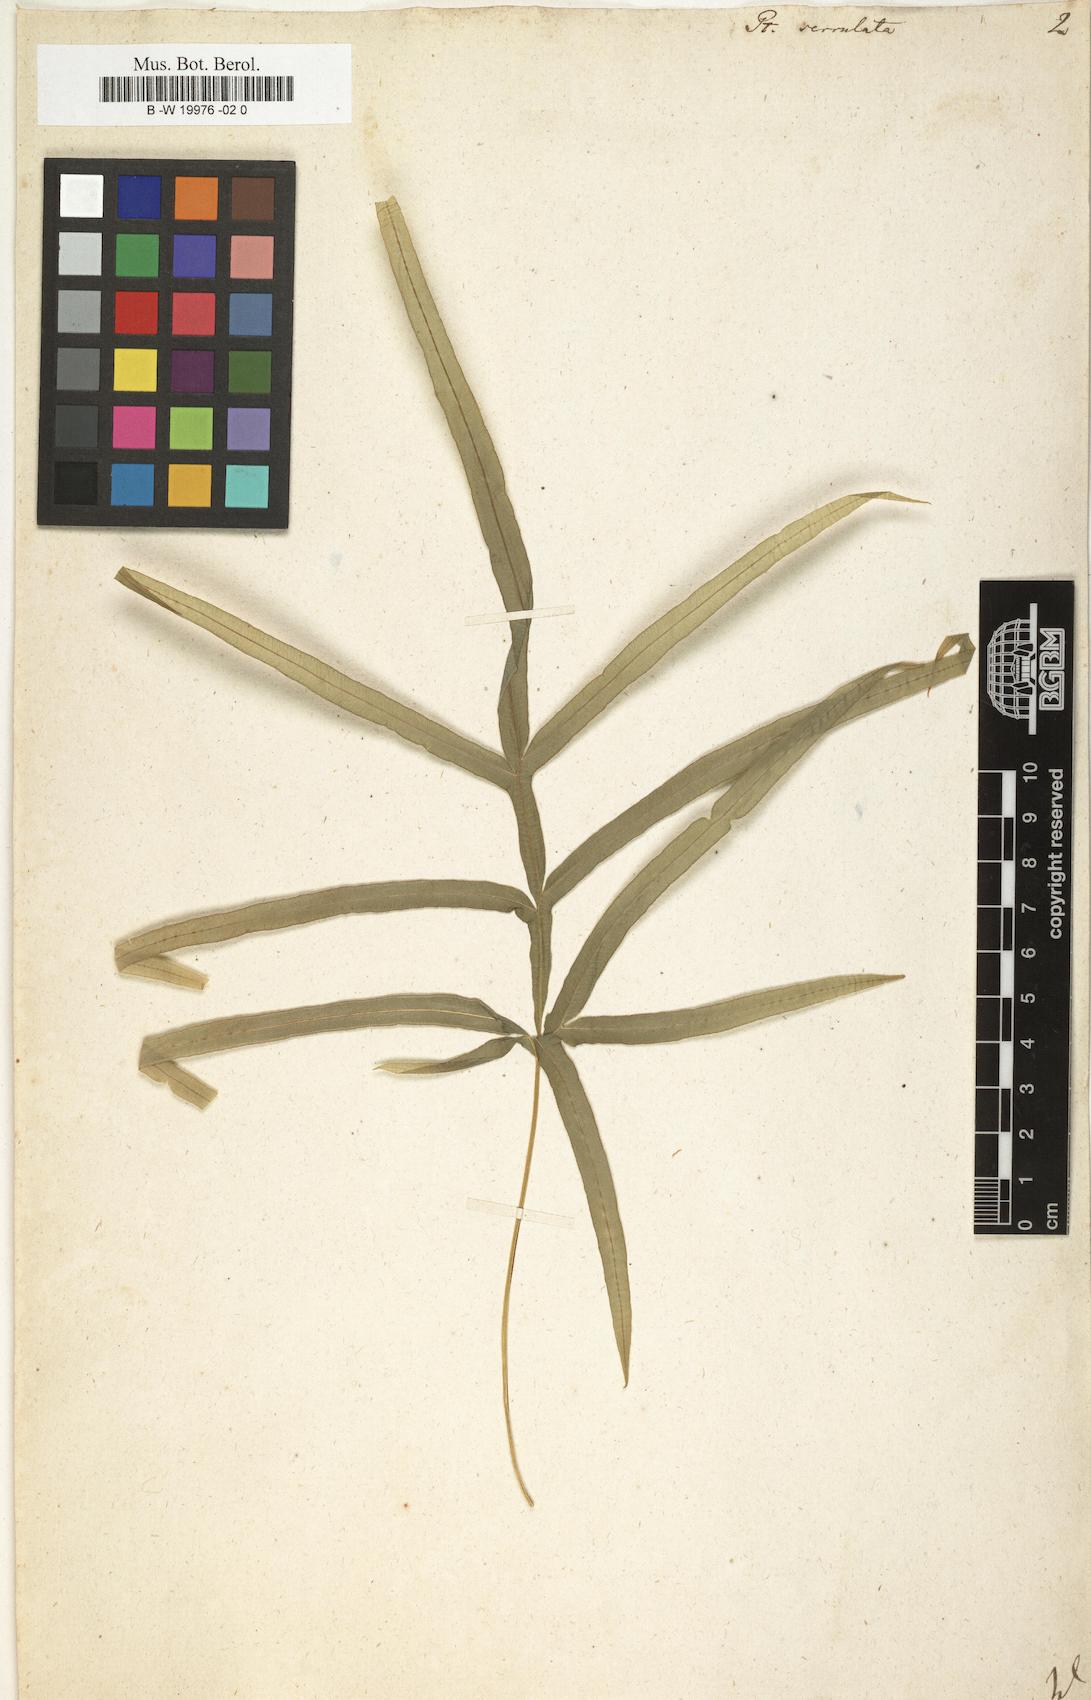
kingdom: Plantae
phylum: Tracheophyta
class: Polypodiopsida
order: Polypodiales
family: Pteridaceae
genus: Pteris
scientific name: Pteris
